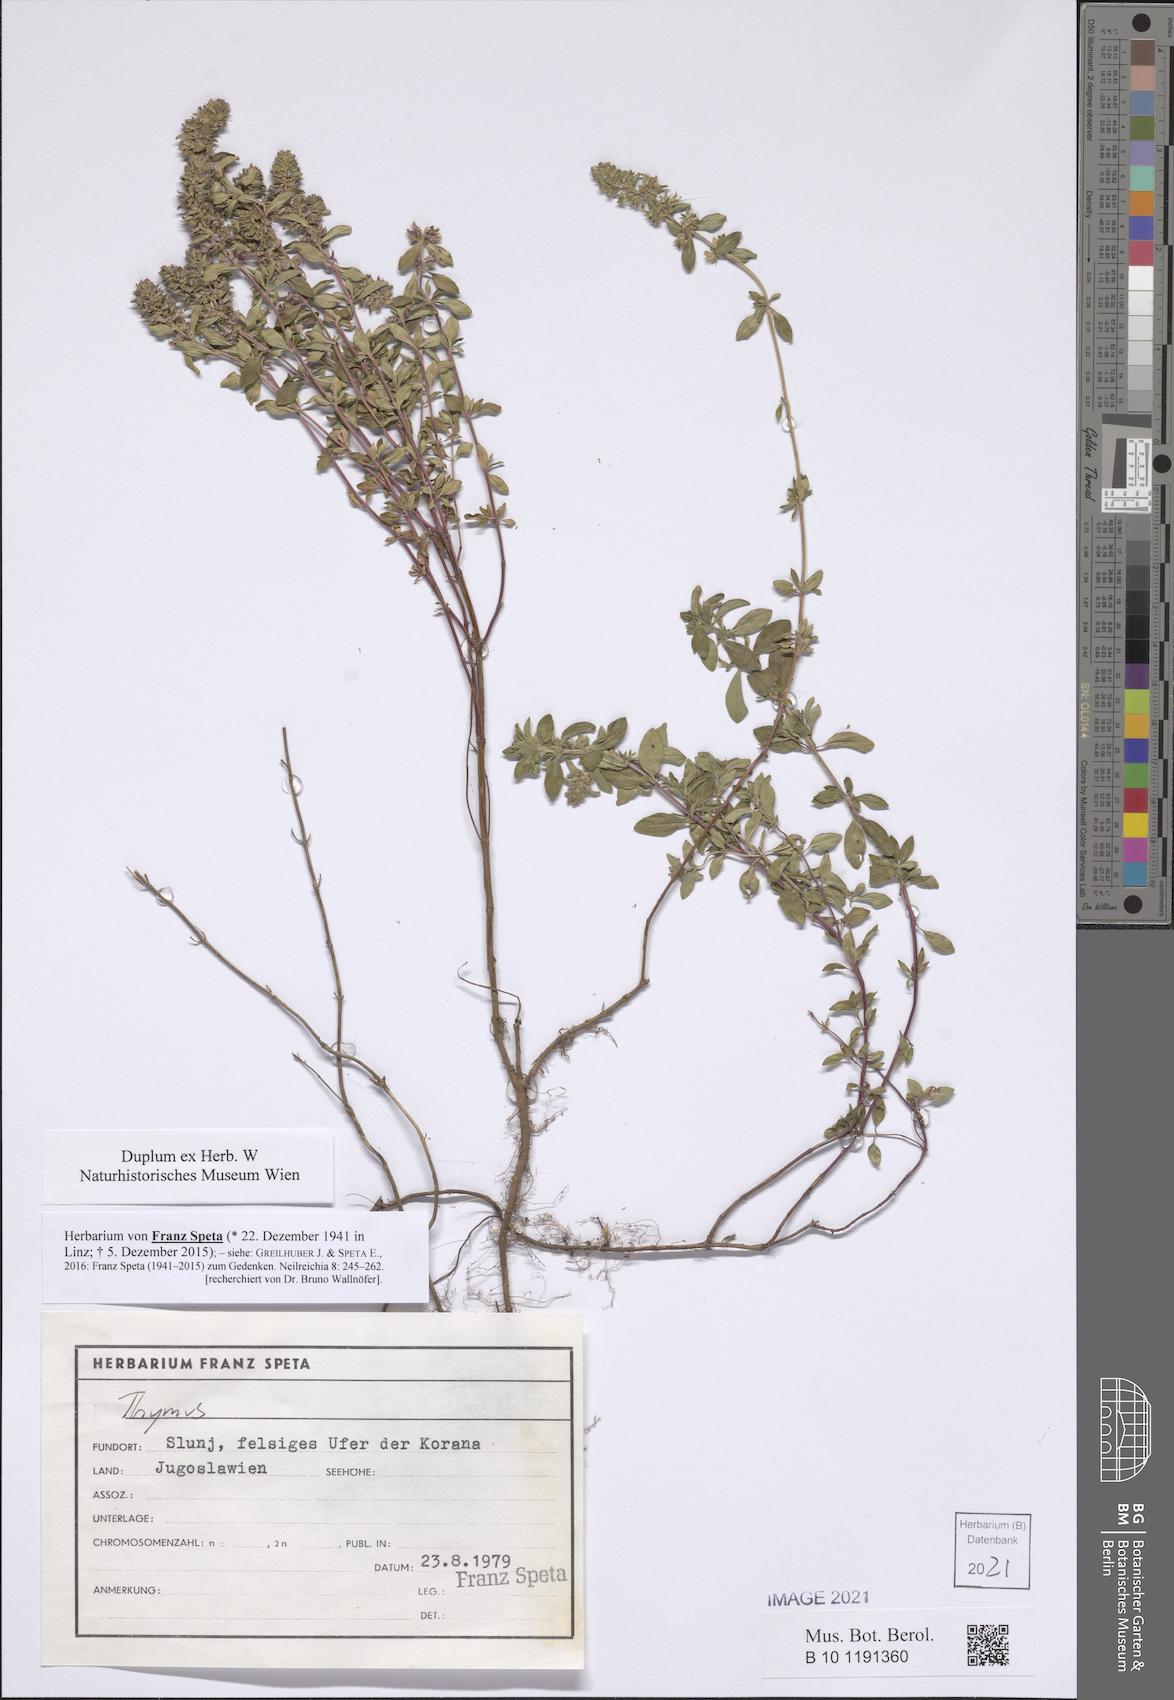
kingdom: Plantae
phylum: Tracheophyta
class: Magnoliopsida
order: Lamiales
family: Lamiaceae
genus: Thymus
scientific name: Thymus
